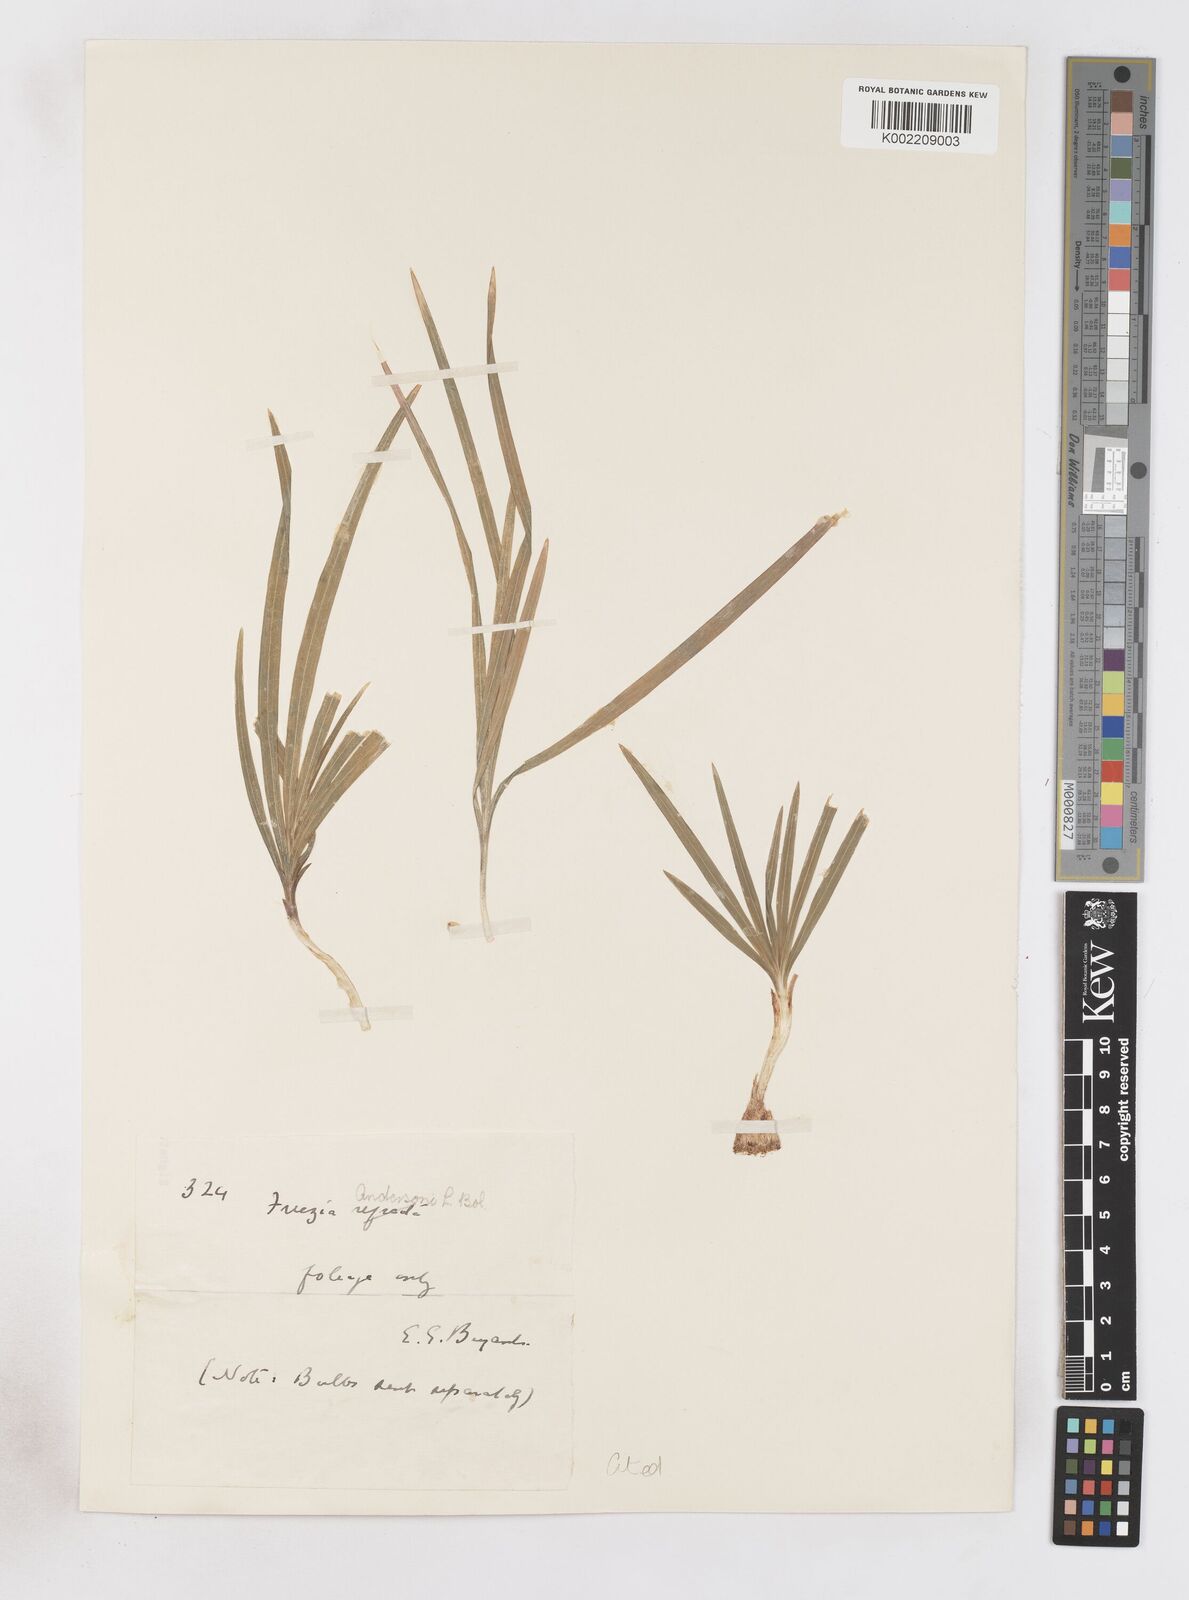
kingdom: Plantae
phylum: Tracheophyta
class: Liliopsida
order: Asparagales
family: Iridaceae
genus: Freesia
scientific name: Freesia andersoniae
